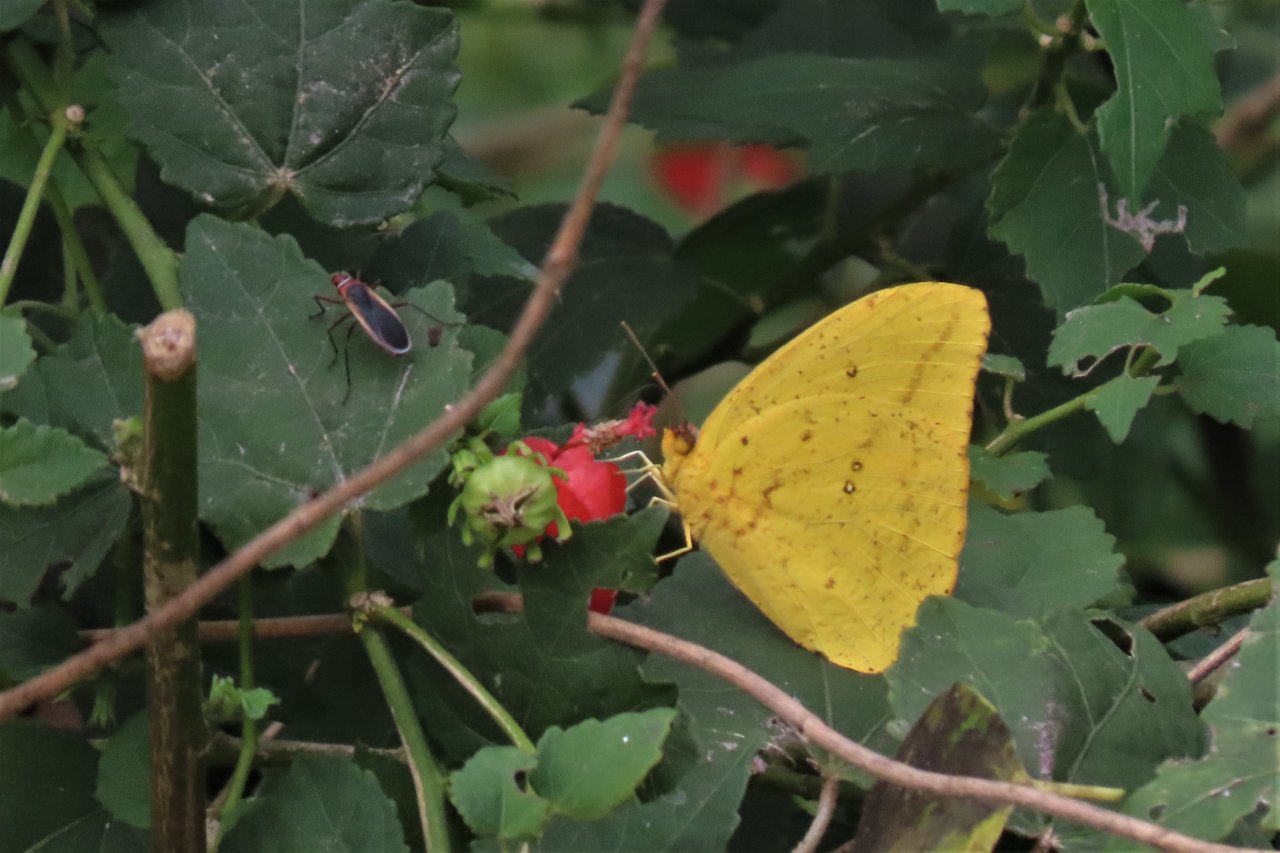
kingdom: Animalia
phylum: Arthropoda
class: Insecta
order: Lepidoptera
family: Pieridae
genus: Phoebis
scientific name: Phoebis agarithe
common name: Large Orange Sulphur
